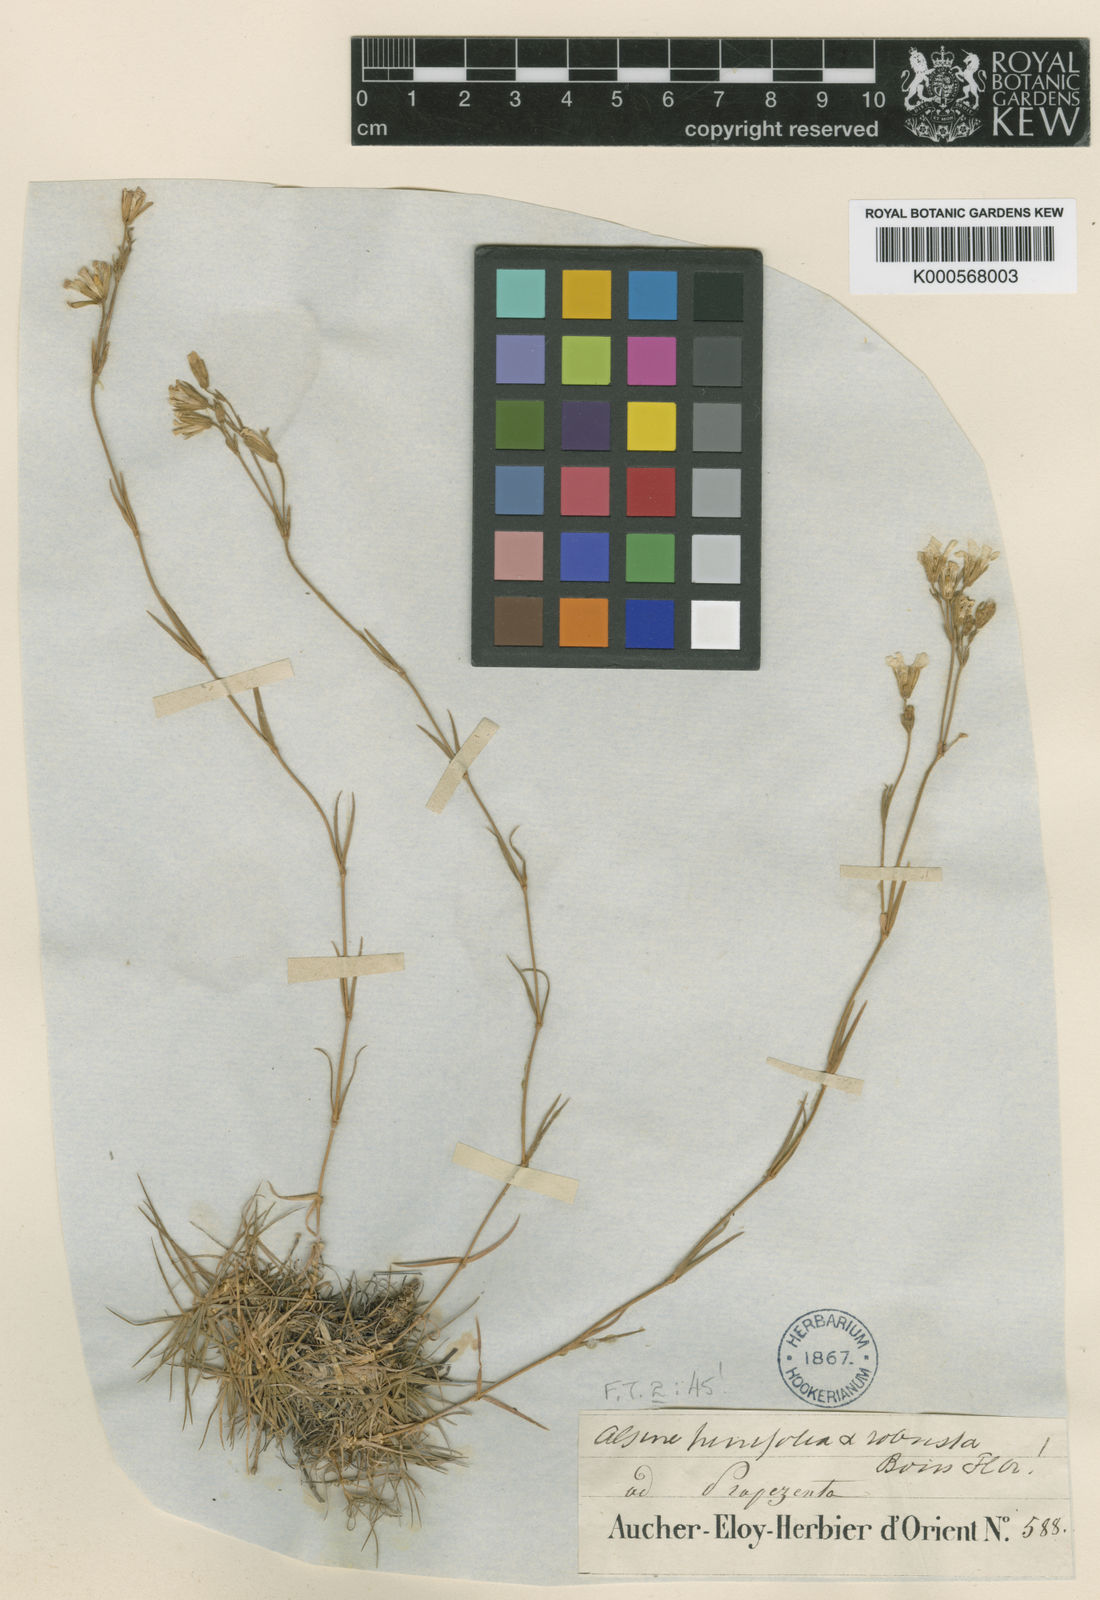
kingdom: Plantae
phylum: Tracheophyta
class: Magnoliopsida
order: Caryophyllales
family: Caryophyllaceae
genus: Cherleria
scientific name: Cherleria circassica
